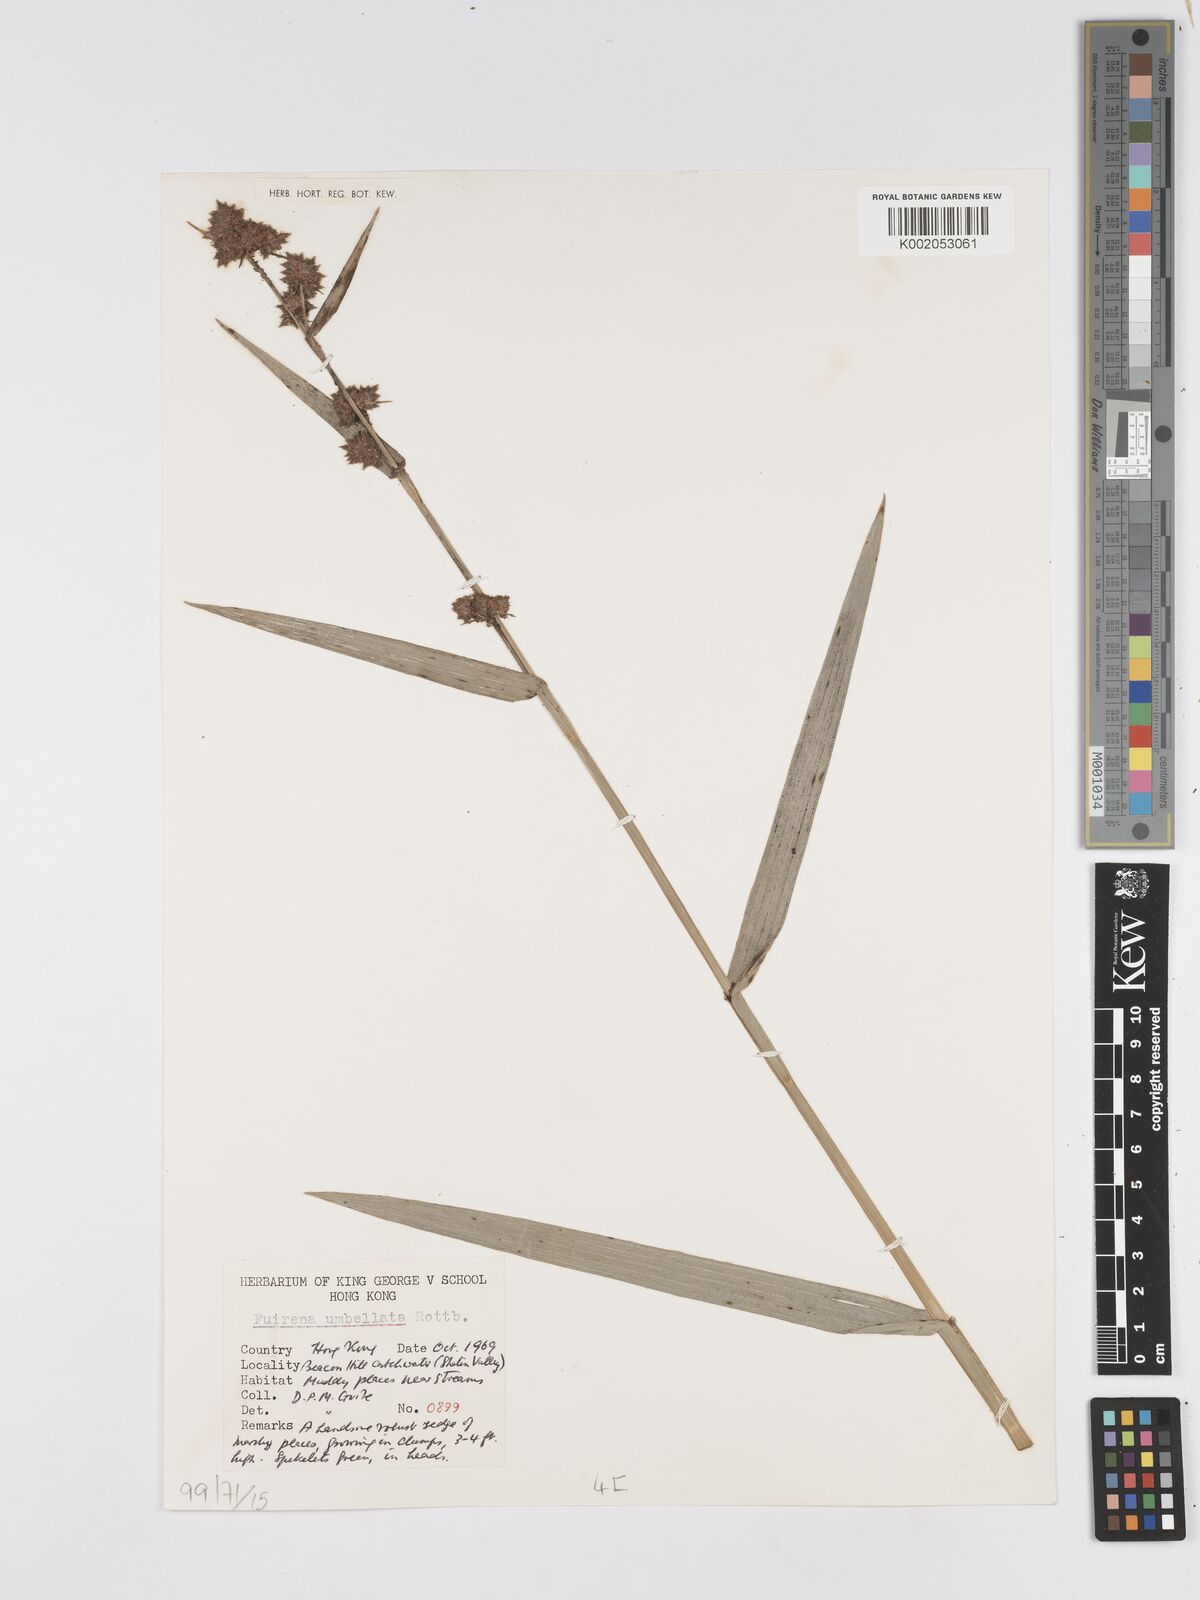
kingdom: Plantae
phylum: Tracheophyta
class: Liliopsida
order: Poales
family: Cyperaceae
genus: Fuirena
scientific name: Fuirena ciliaris
